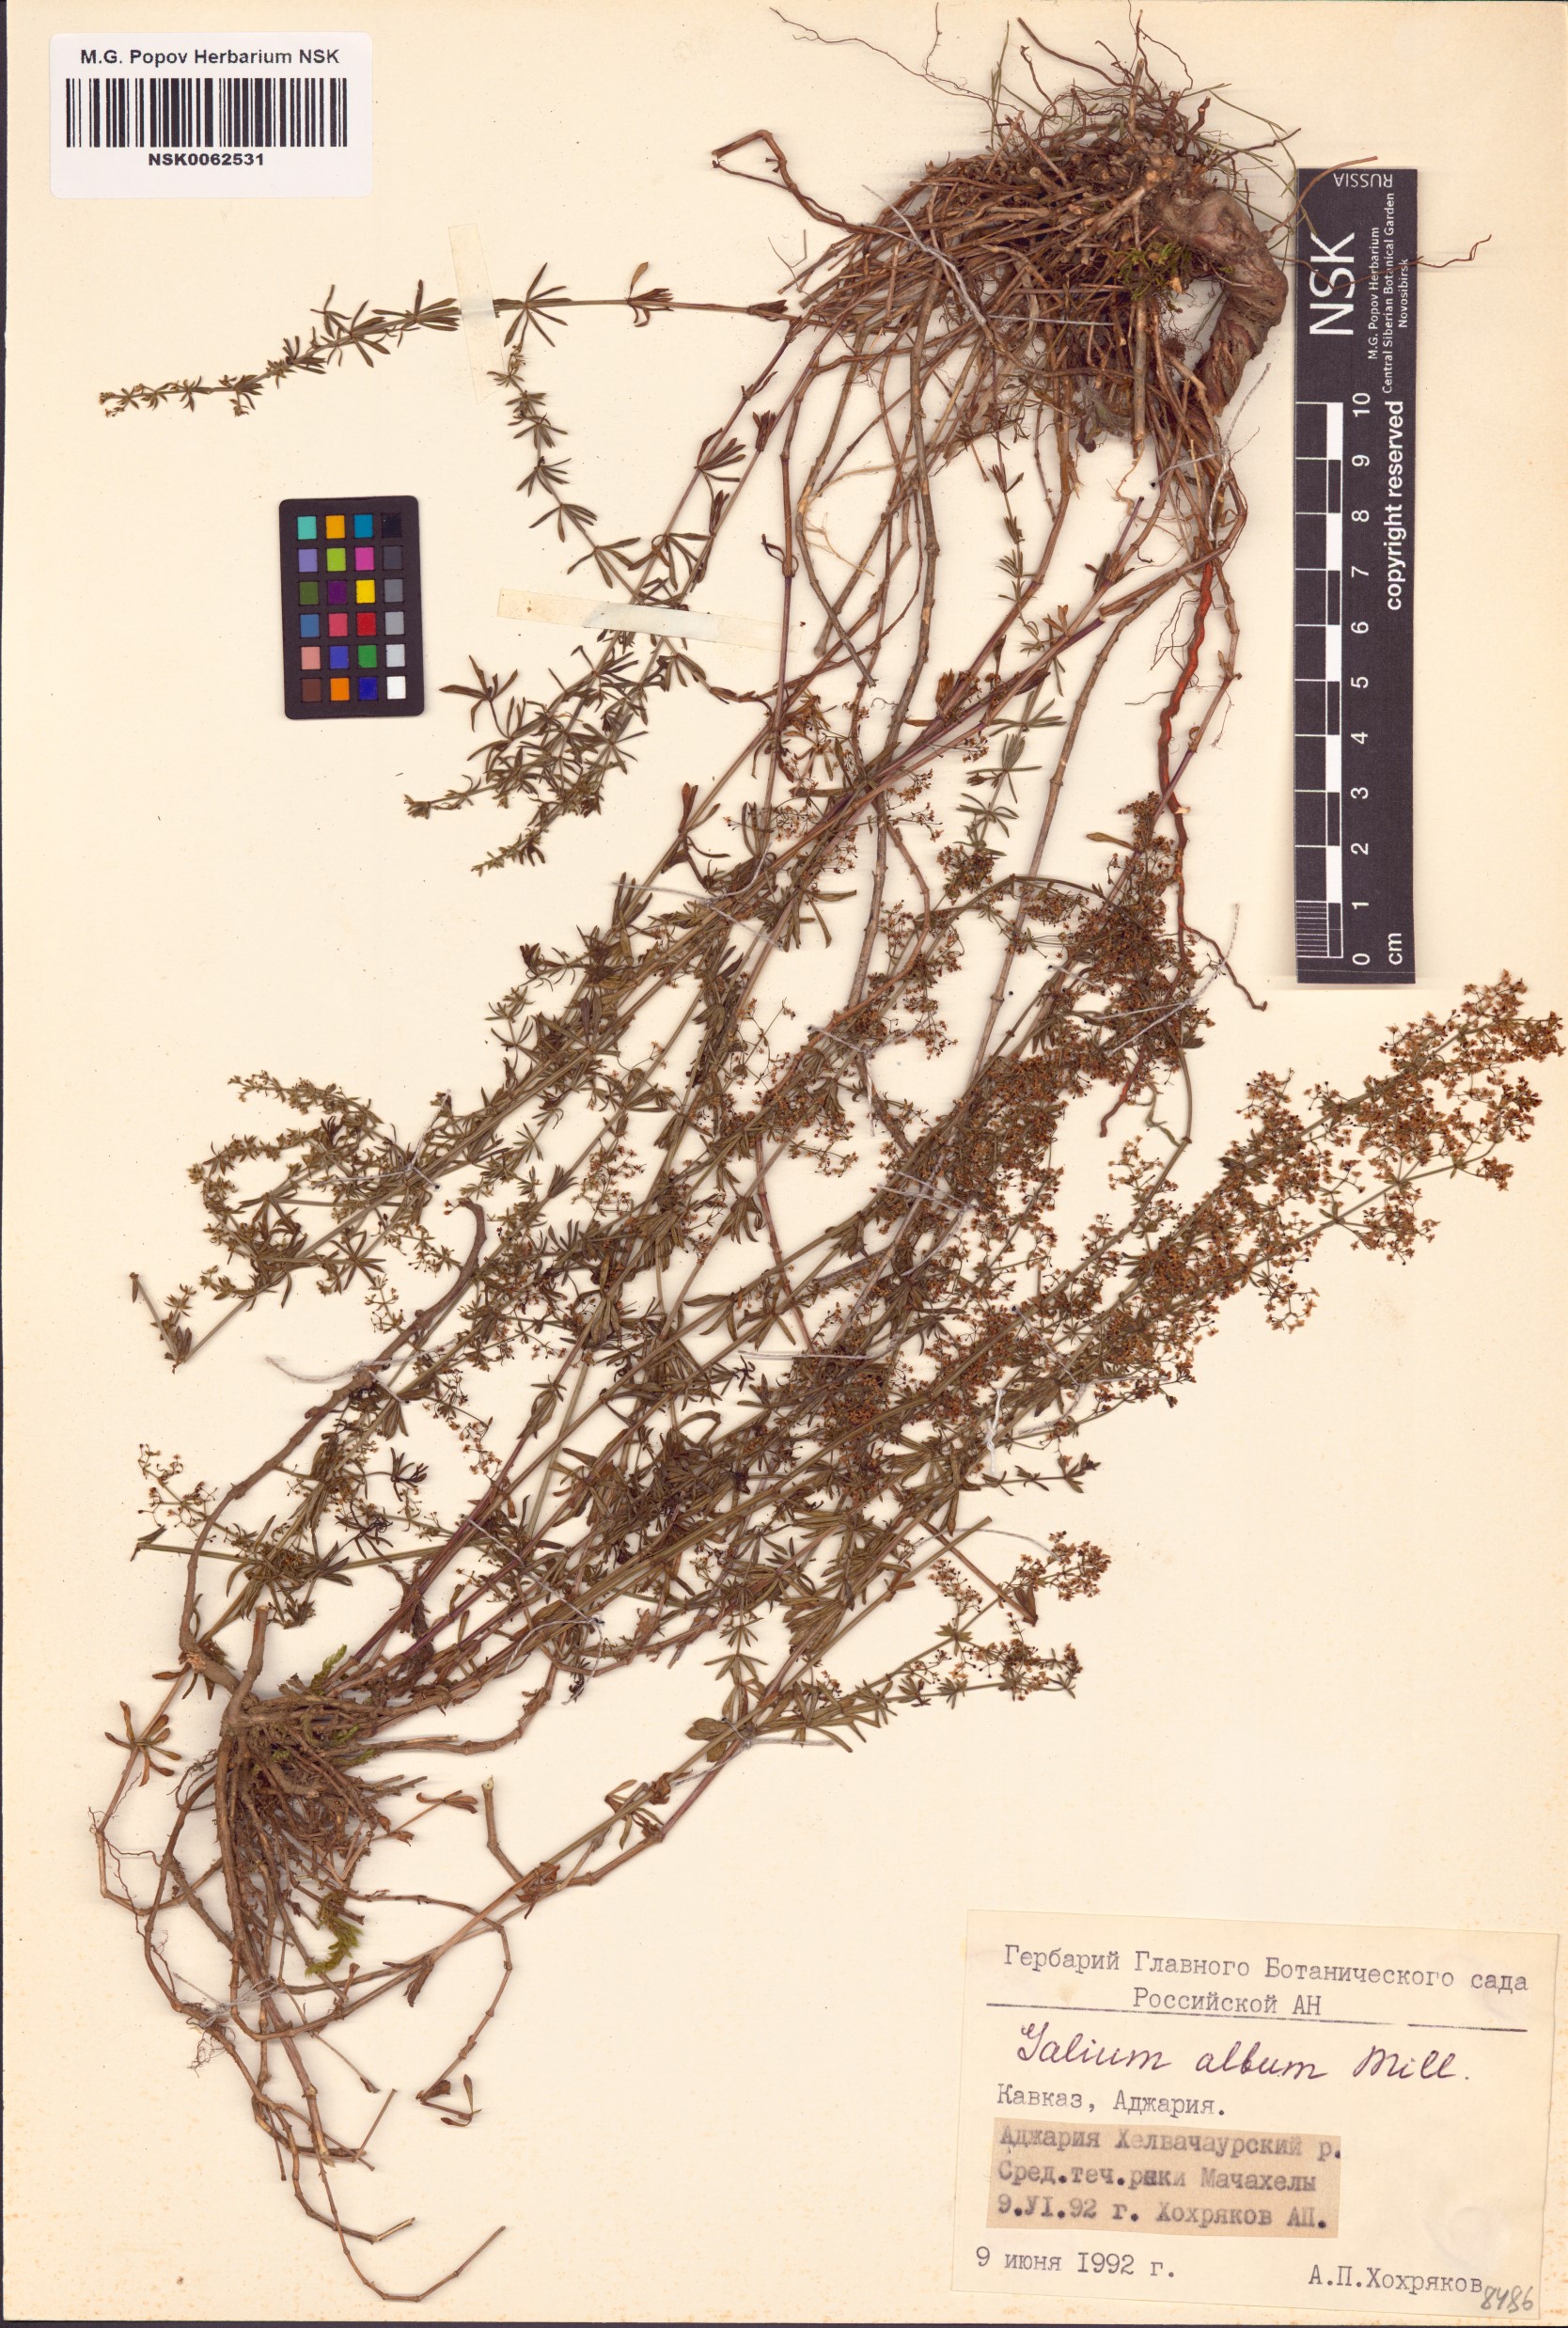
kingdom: Plantae
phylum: Tracheophyta
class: Magnoliopsida
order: Gentianales
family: Rubiaceae
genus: Galium
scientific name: Galium album
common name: White bedstraw
